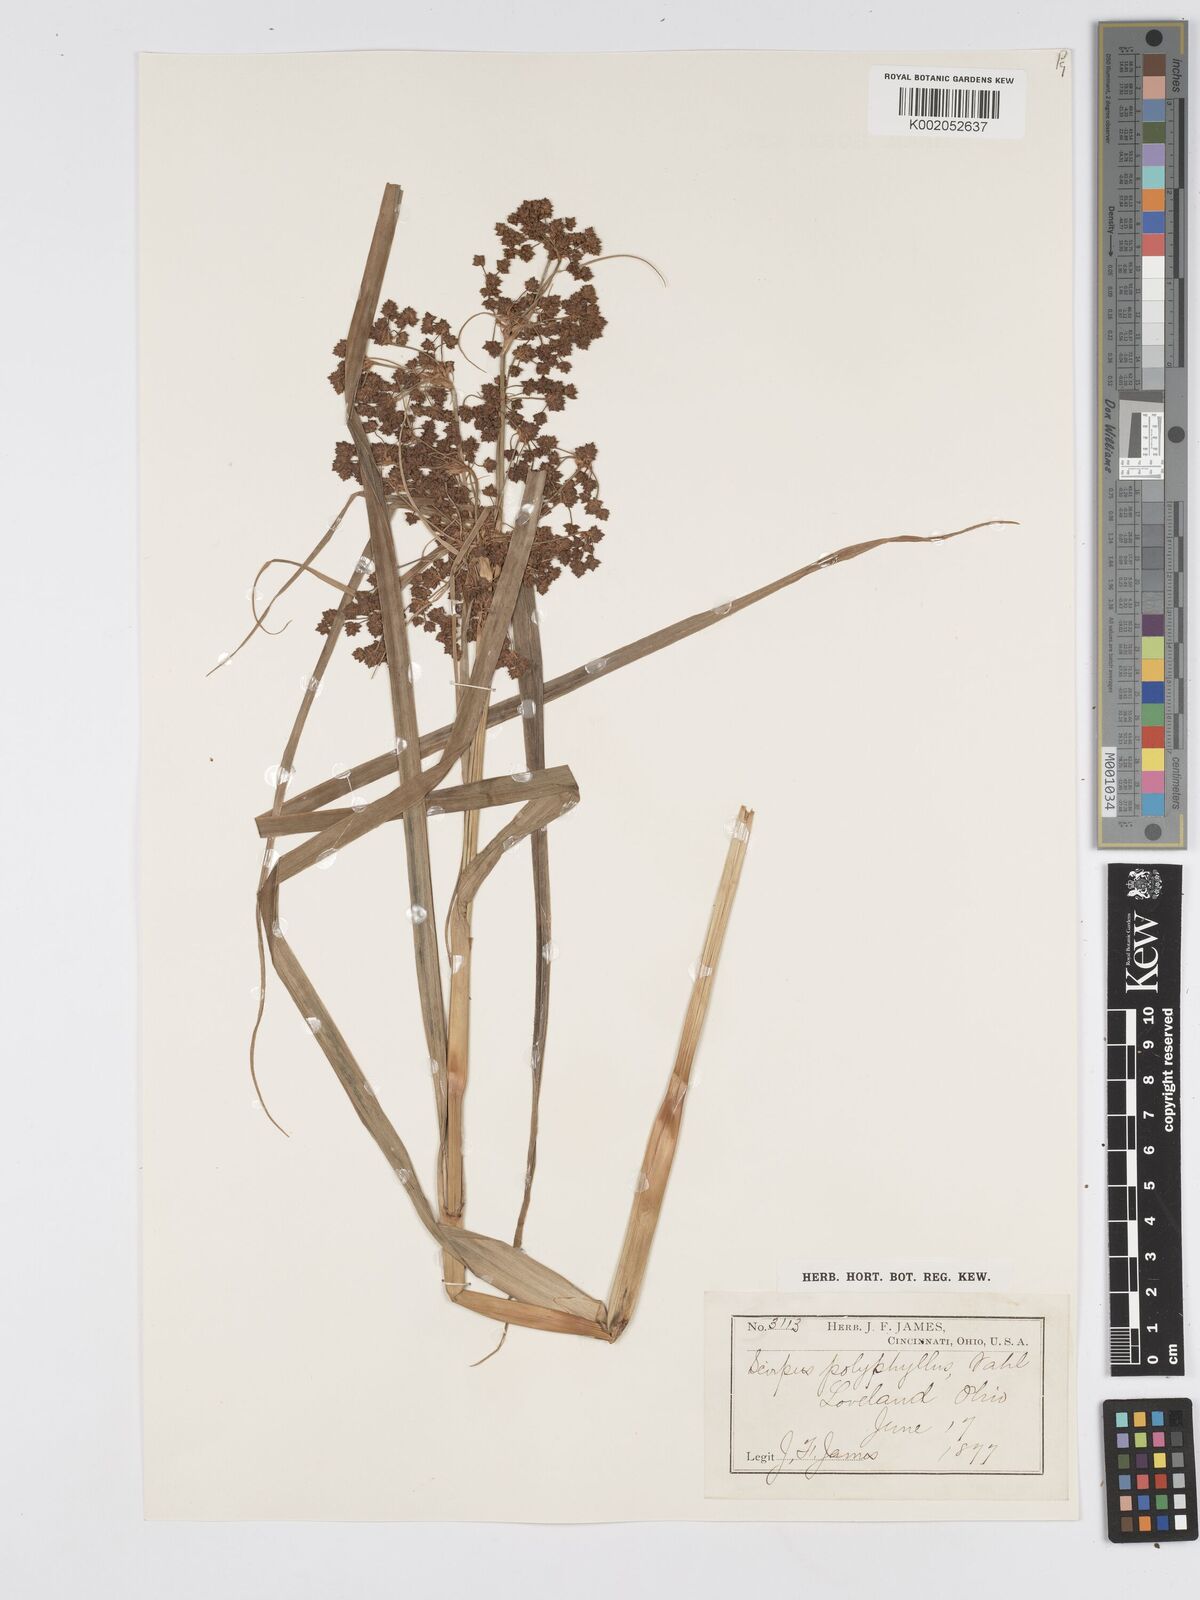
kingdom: Plantae
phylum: Tracheophyta
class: Liliopsida
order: Poales
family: Cyperaceae
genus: Scirpus
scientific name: Scirpus atrovirens
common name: Black bulrush
